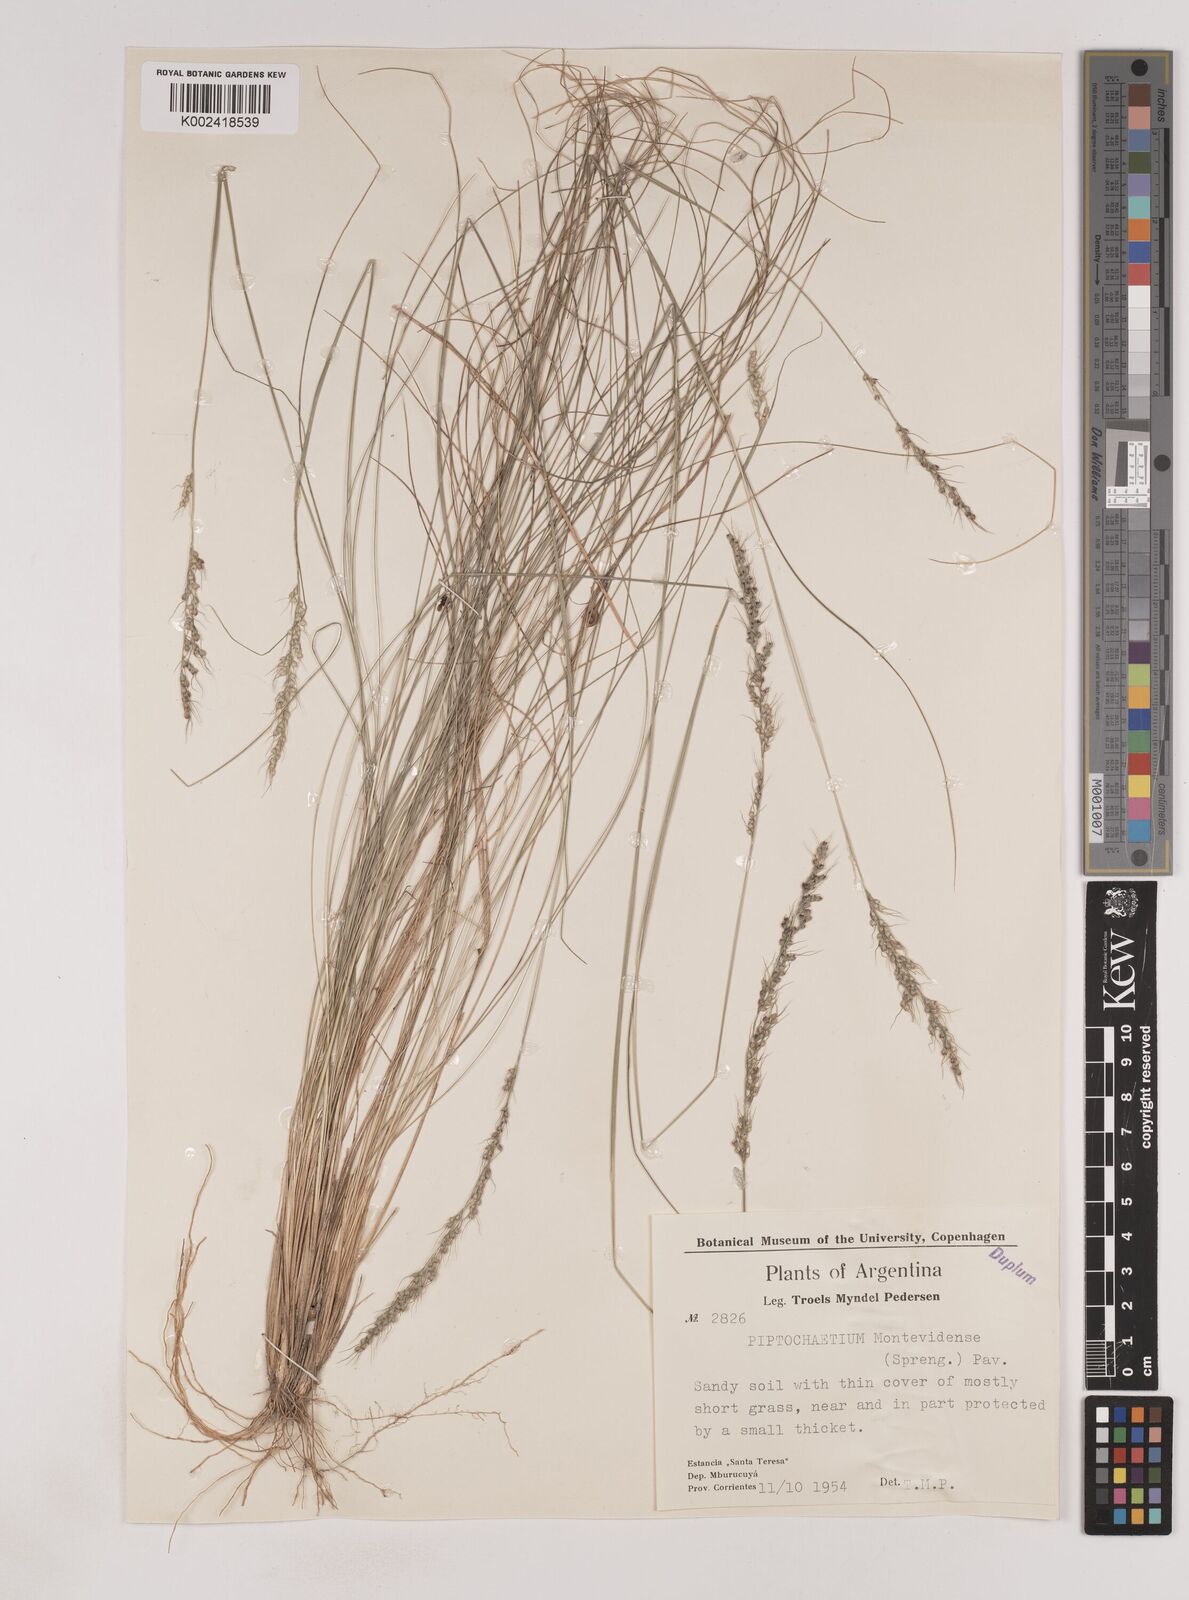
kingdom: Plantae
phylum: Tracheophyta
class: Liliopsida
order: Poales
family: Poaceae
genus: Piptochaetium
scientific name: Piptochaetium montevidense
